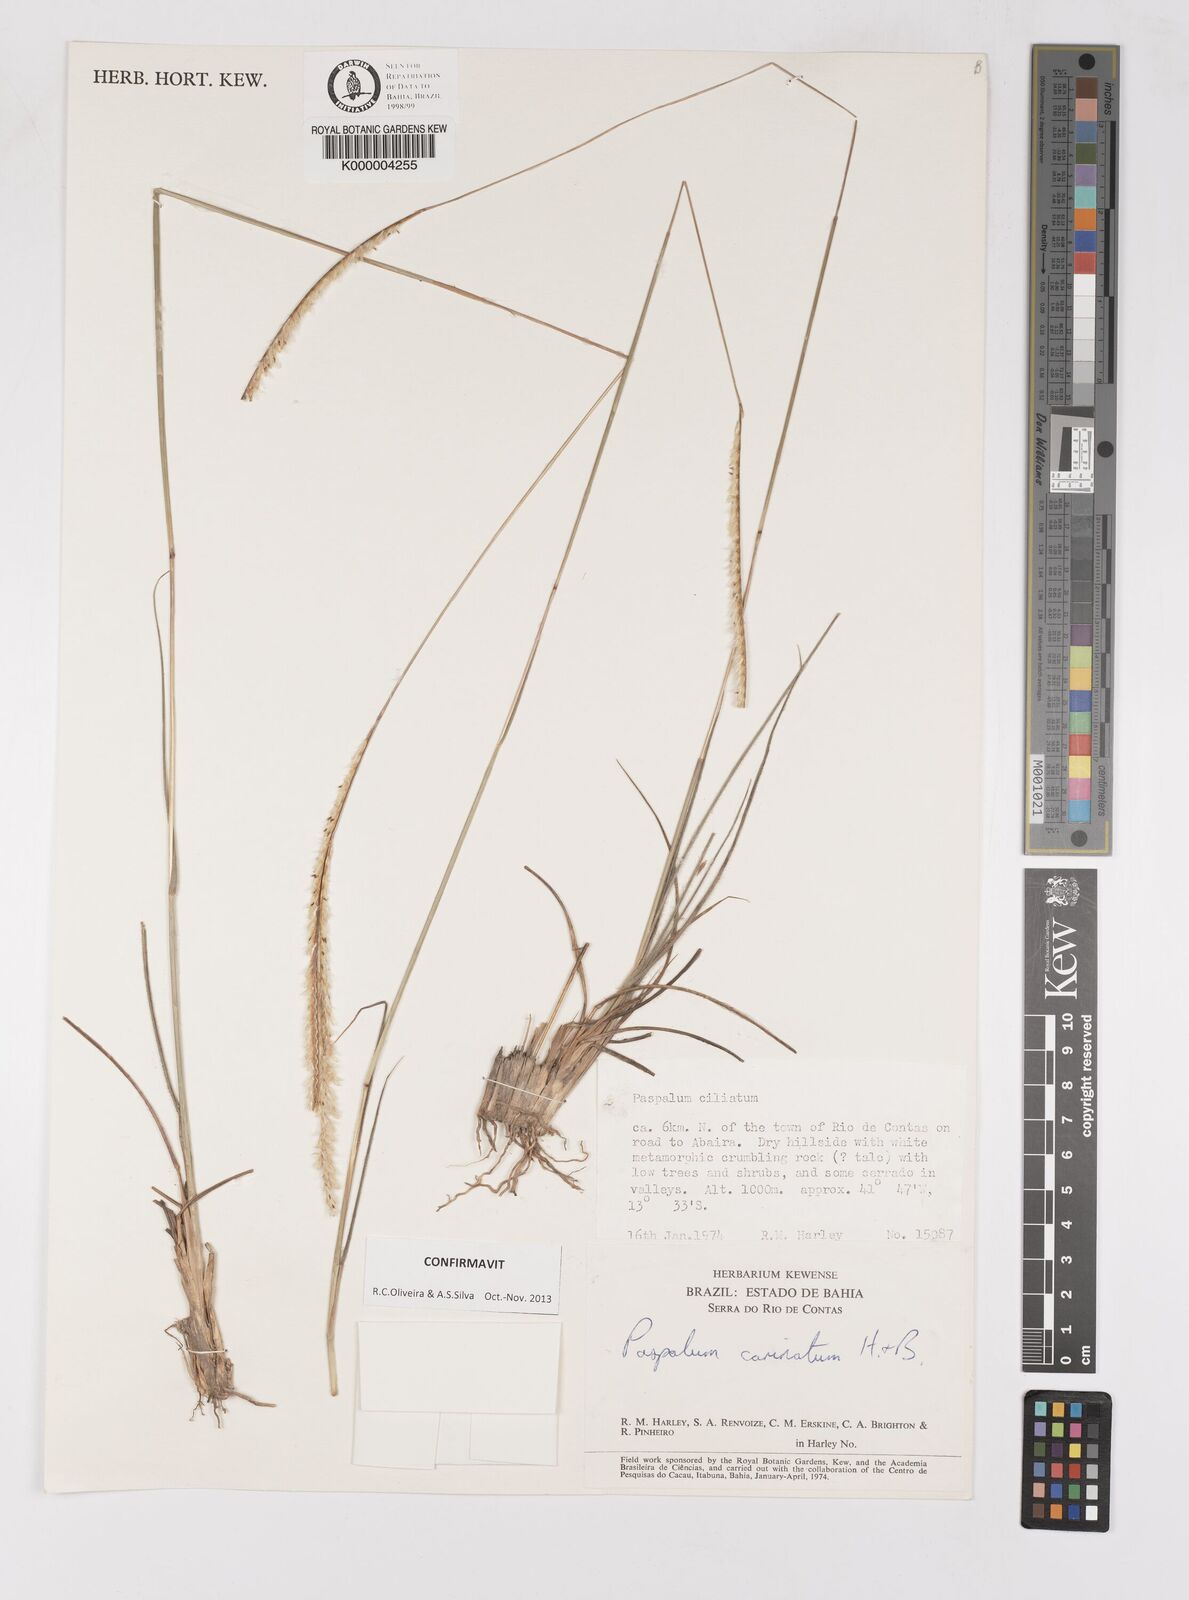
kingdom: Plantae
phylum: Tracheophyta
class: Liliopsida
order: Poales
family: Poaceae
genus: Paspalum
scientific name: Paspalum carinatum
